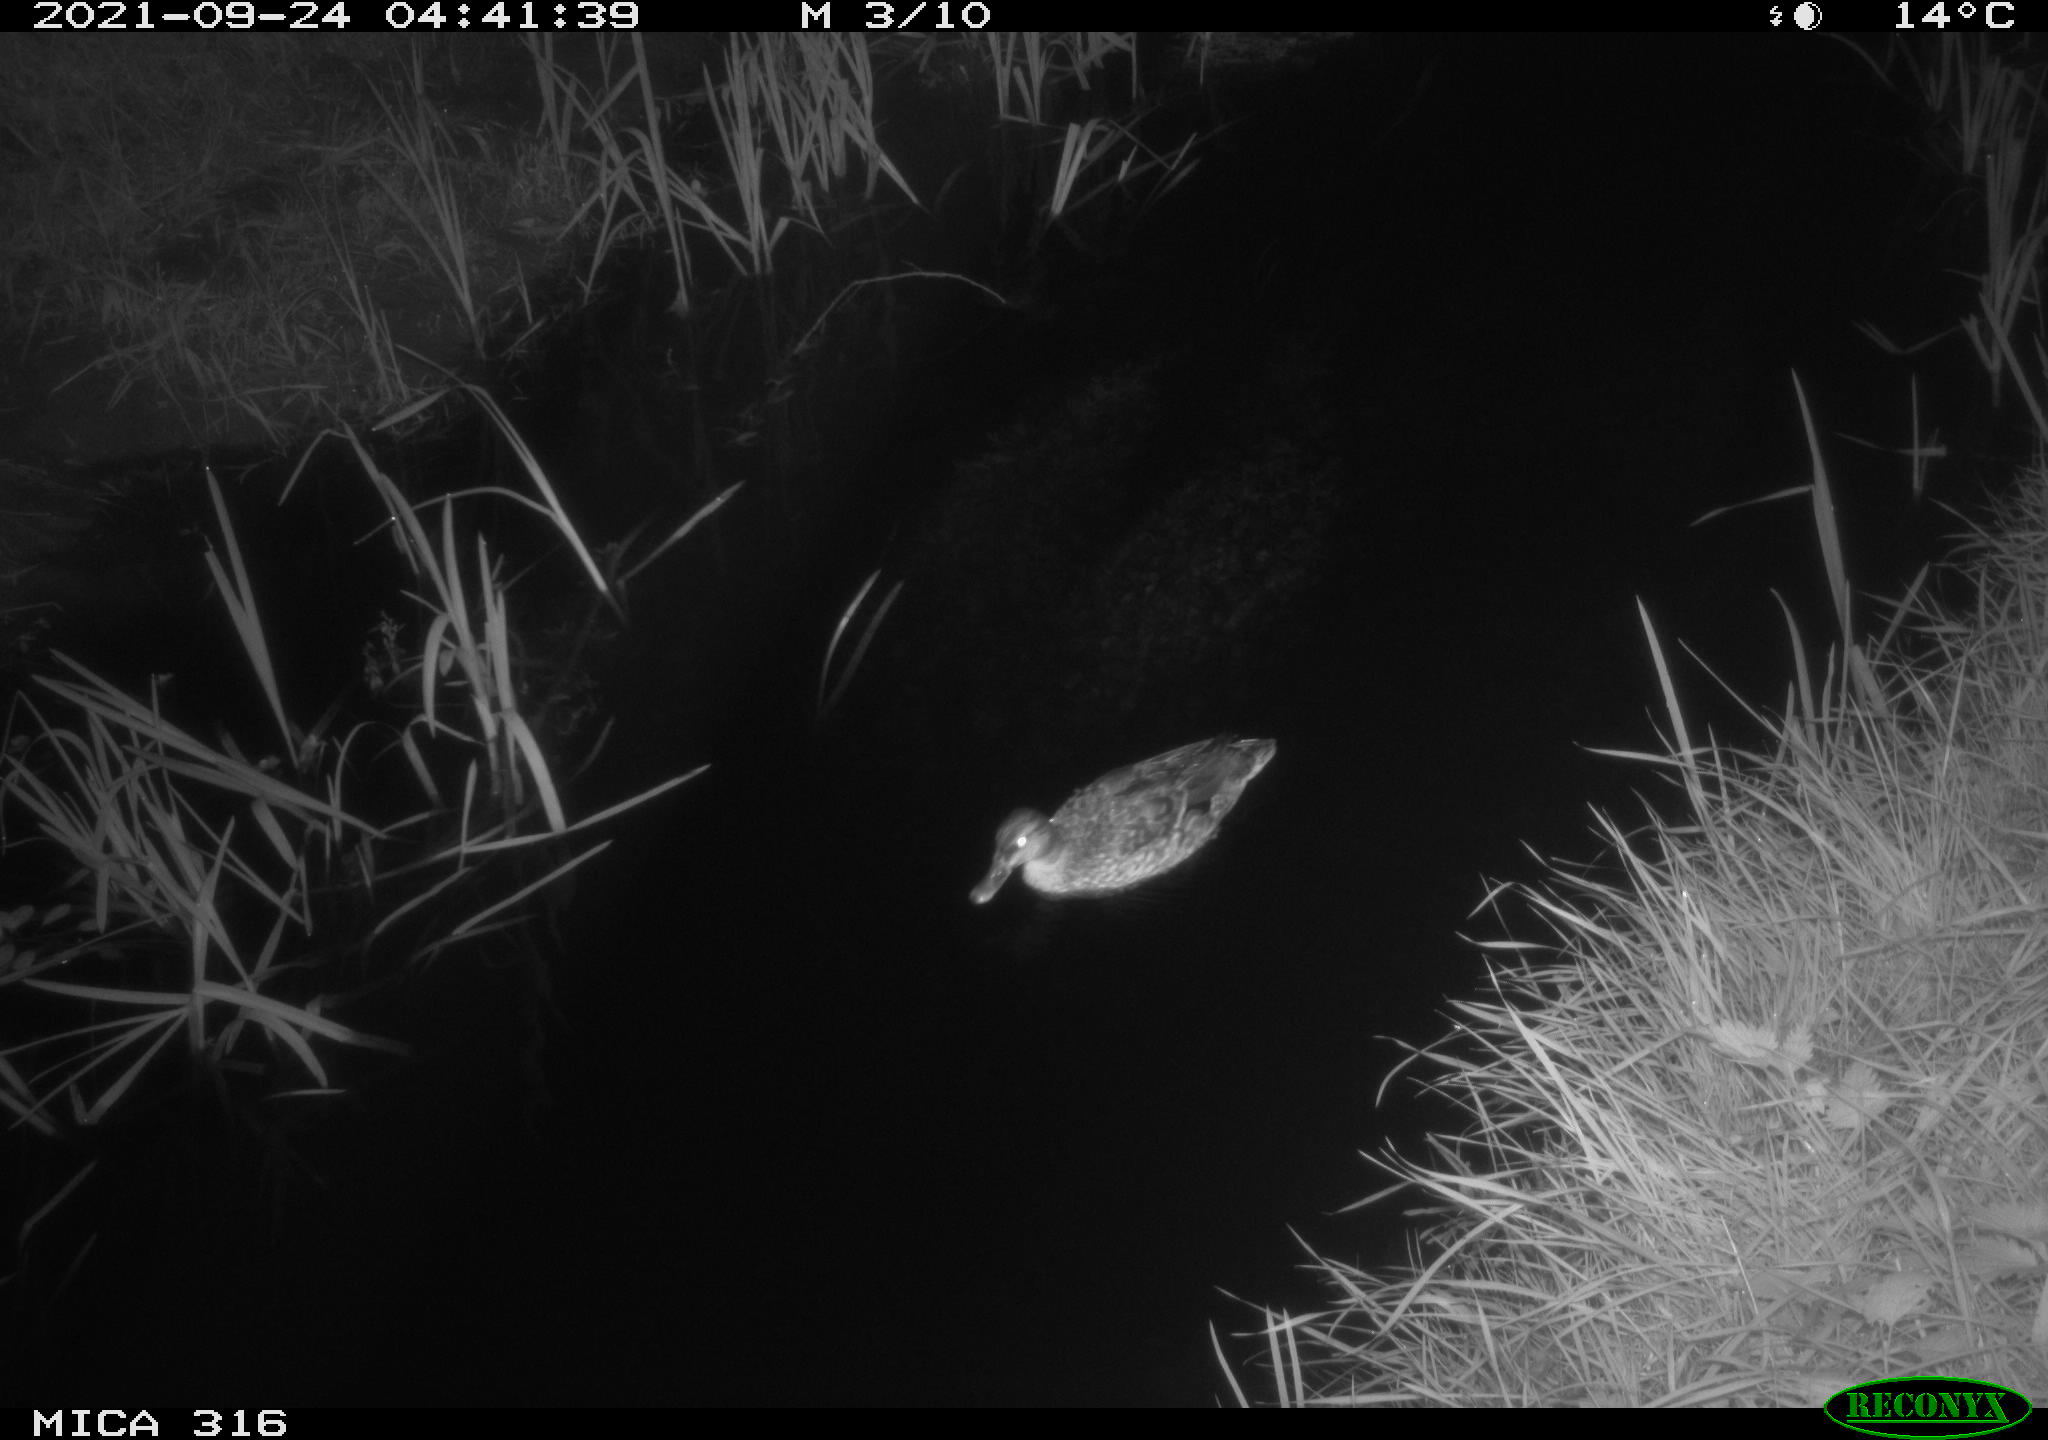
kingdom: Animalia
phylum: Chordata
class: Aves
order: Anseriformes
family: Anatidae
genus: Anas
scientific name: Anas platyrhynchos
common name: Mallard
